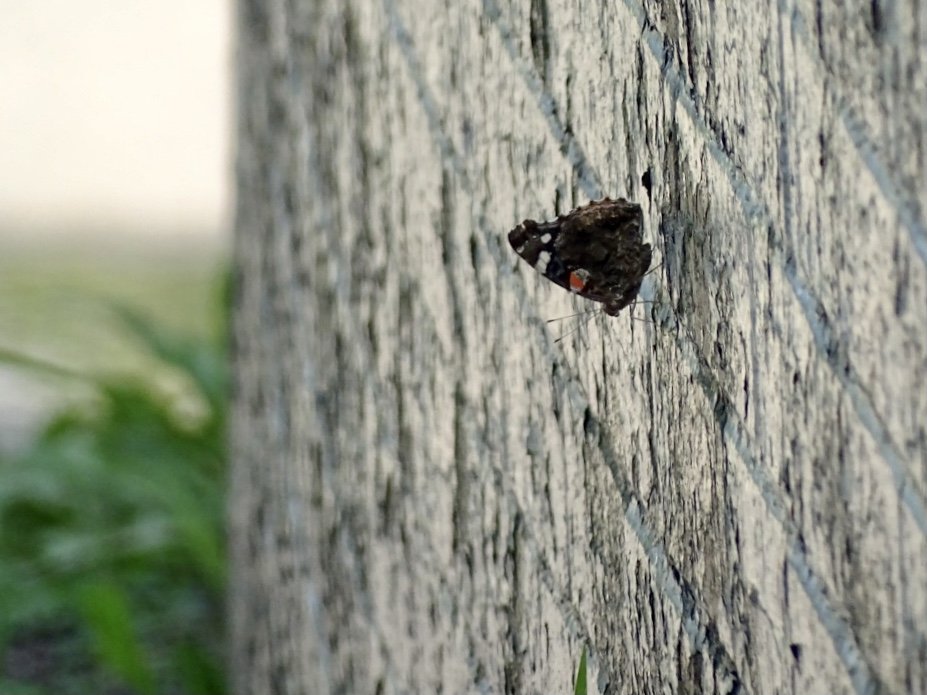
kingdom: Animalia
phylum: Arthropoda
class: Insecta
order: Lepidoptera
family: Nymphalidae
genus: Vanessa
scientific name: Vanessa atalanta
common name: Red Admiral
